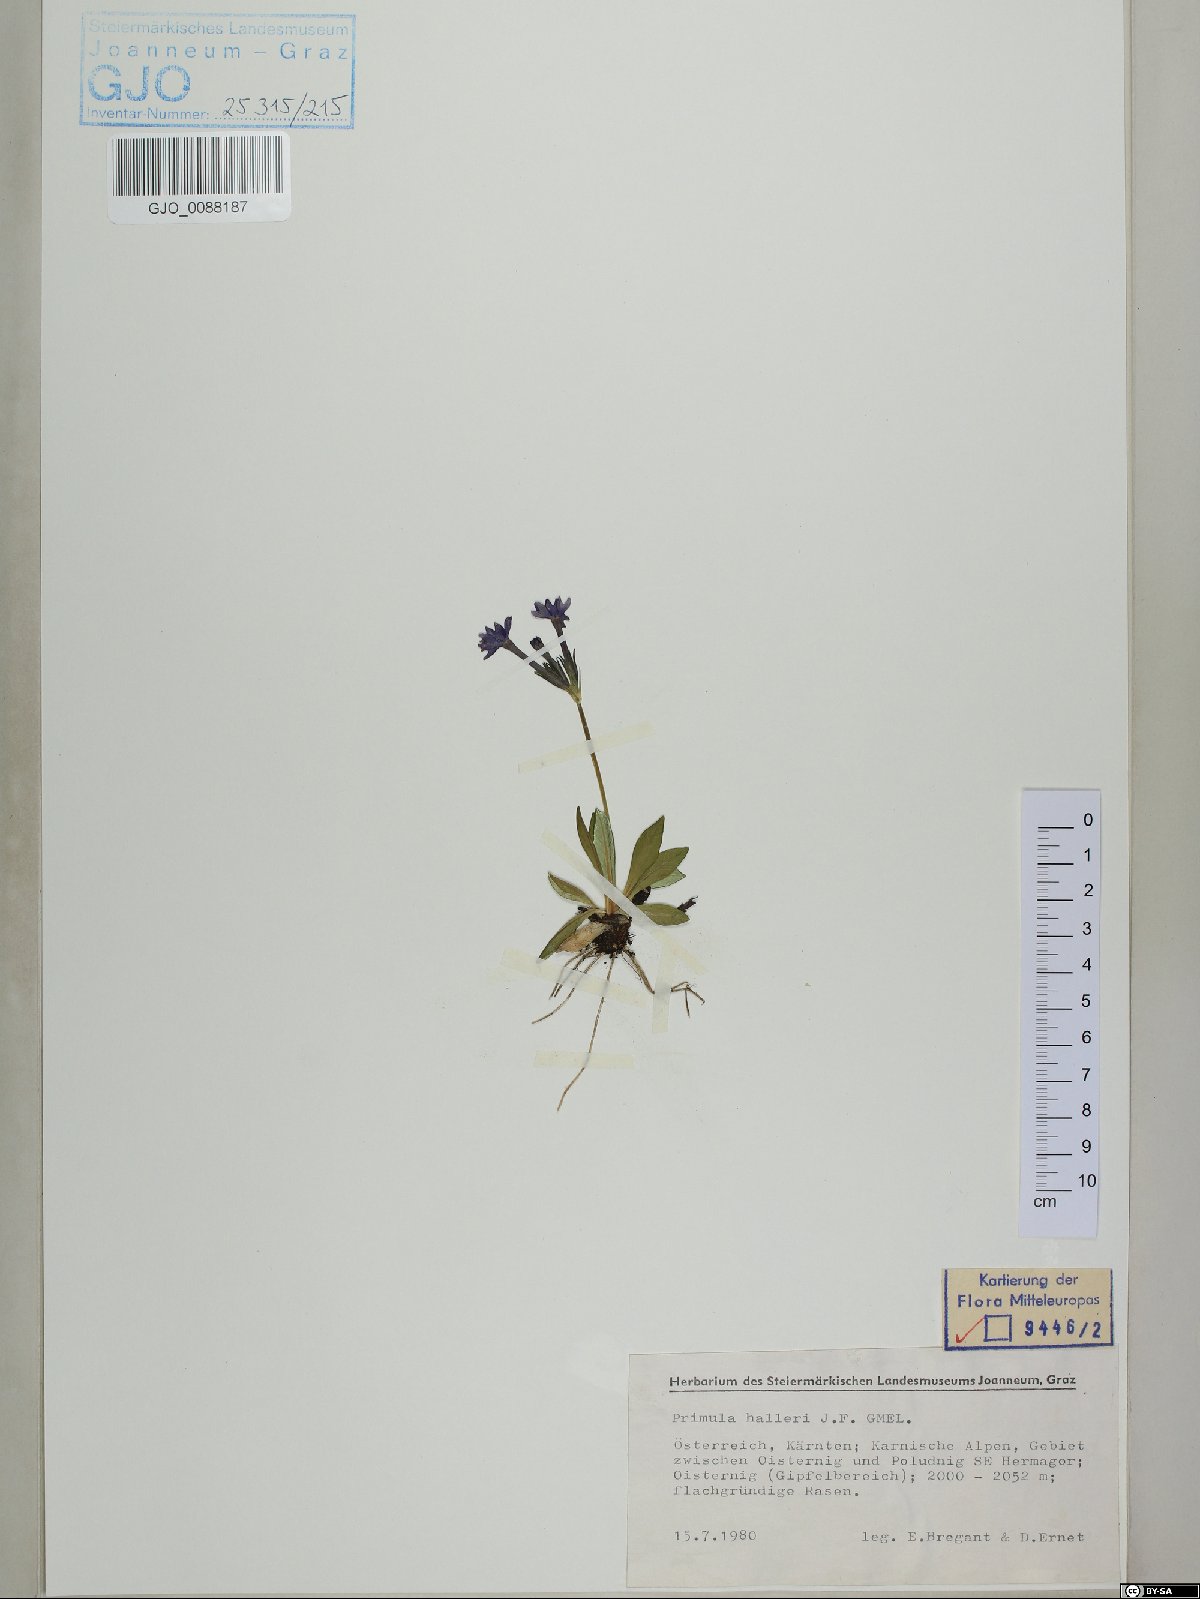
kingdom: Plantae
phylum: Tracheophyta
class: Magnoliopsida
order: Ericales
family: Primulaceae
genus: Primula
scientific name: Primula halleri
